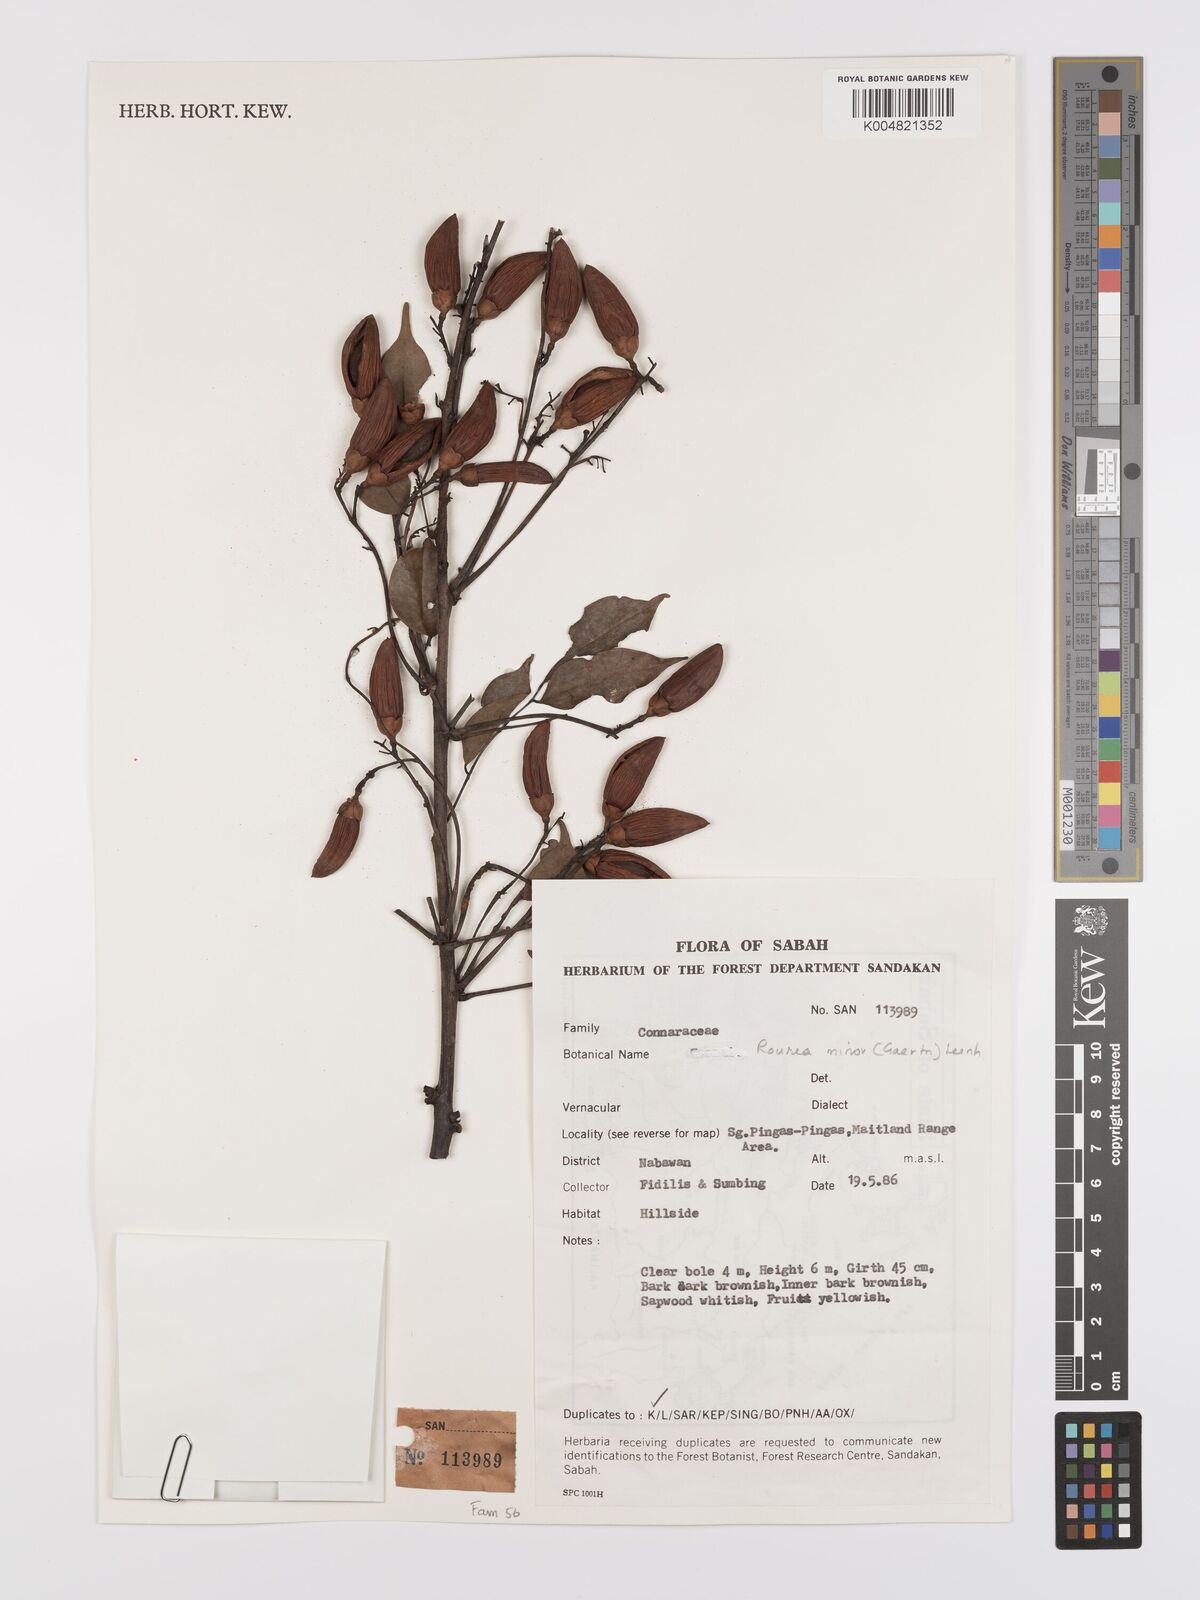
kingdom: Plantae
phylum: Tracheophyta
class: Magnoliopsida
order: Oxalidales
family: Connaraceae
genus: Rourea
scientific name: Rourea minor
